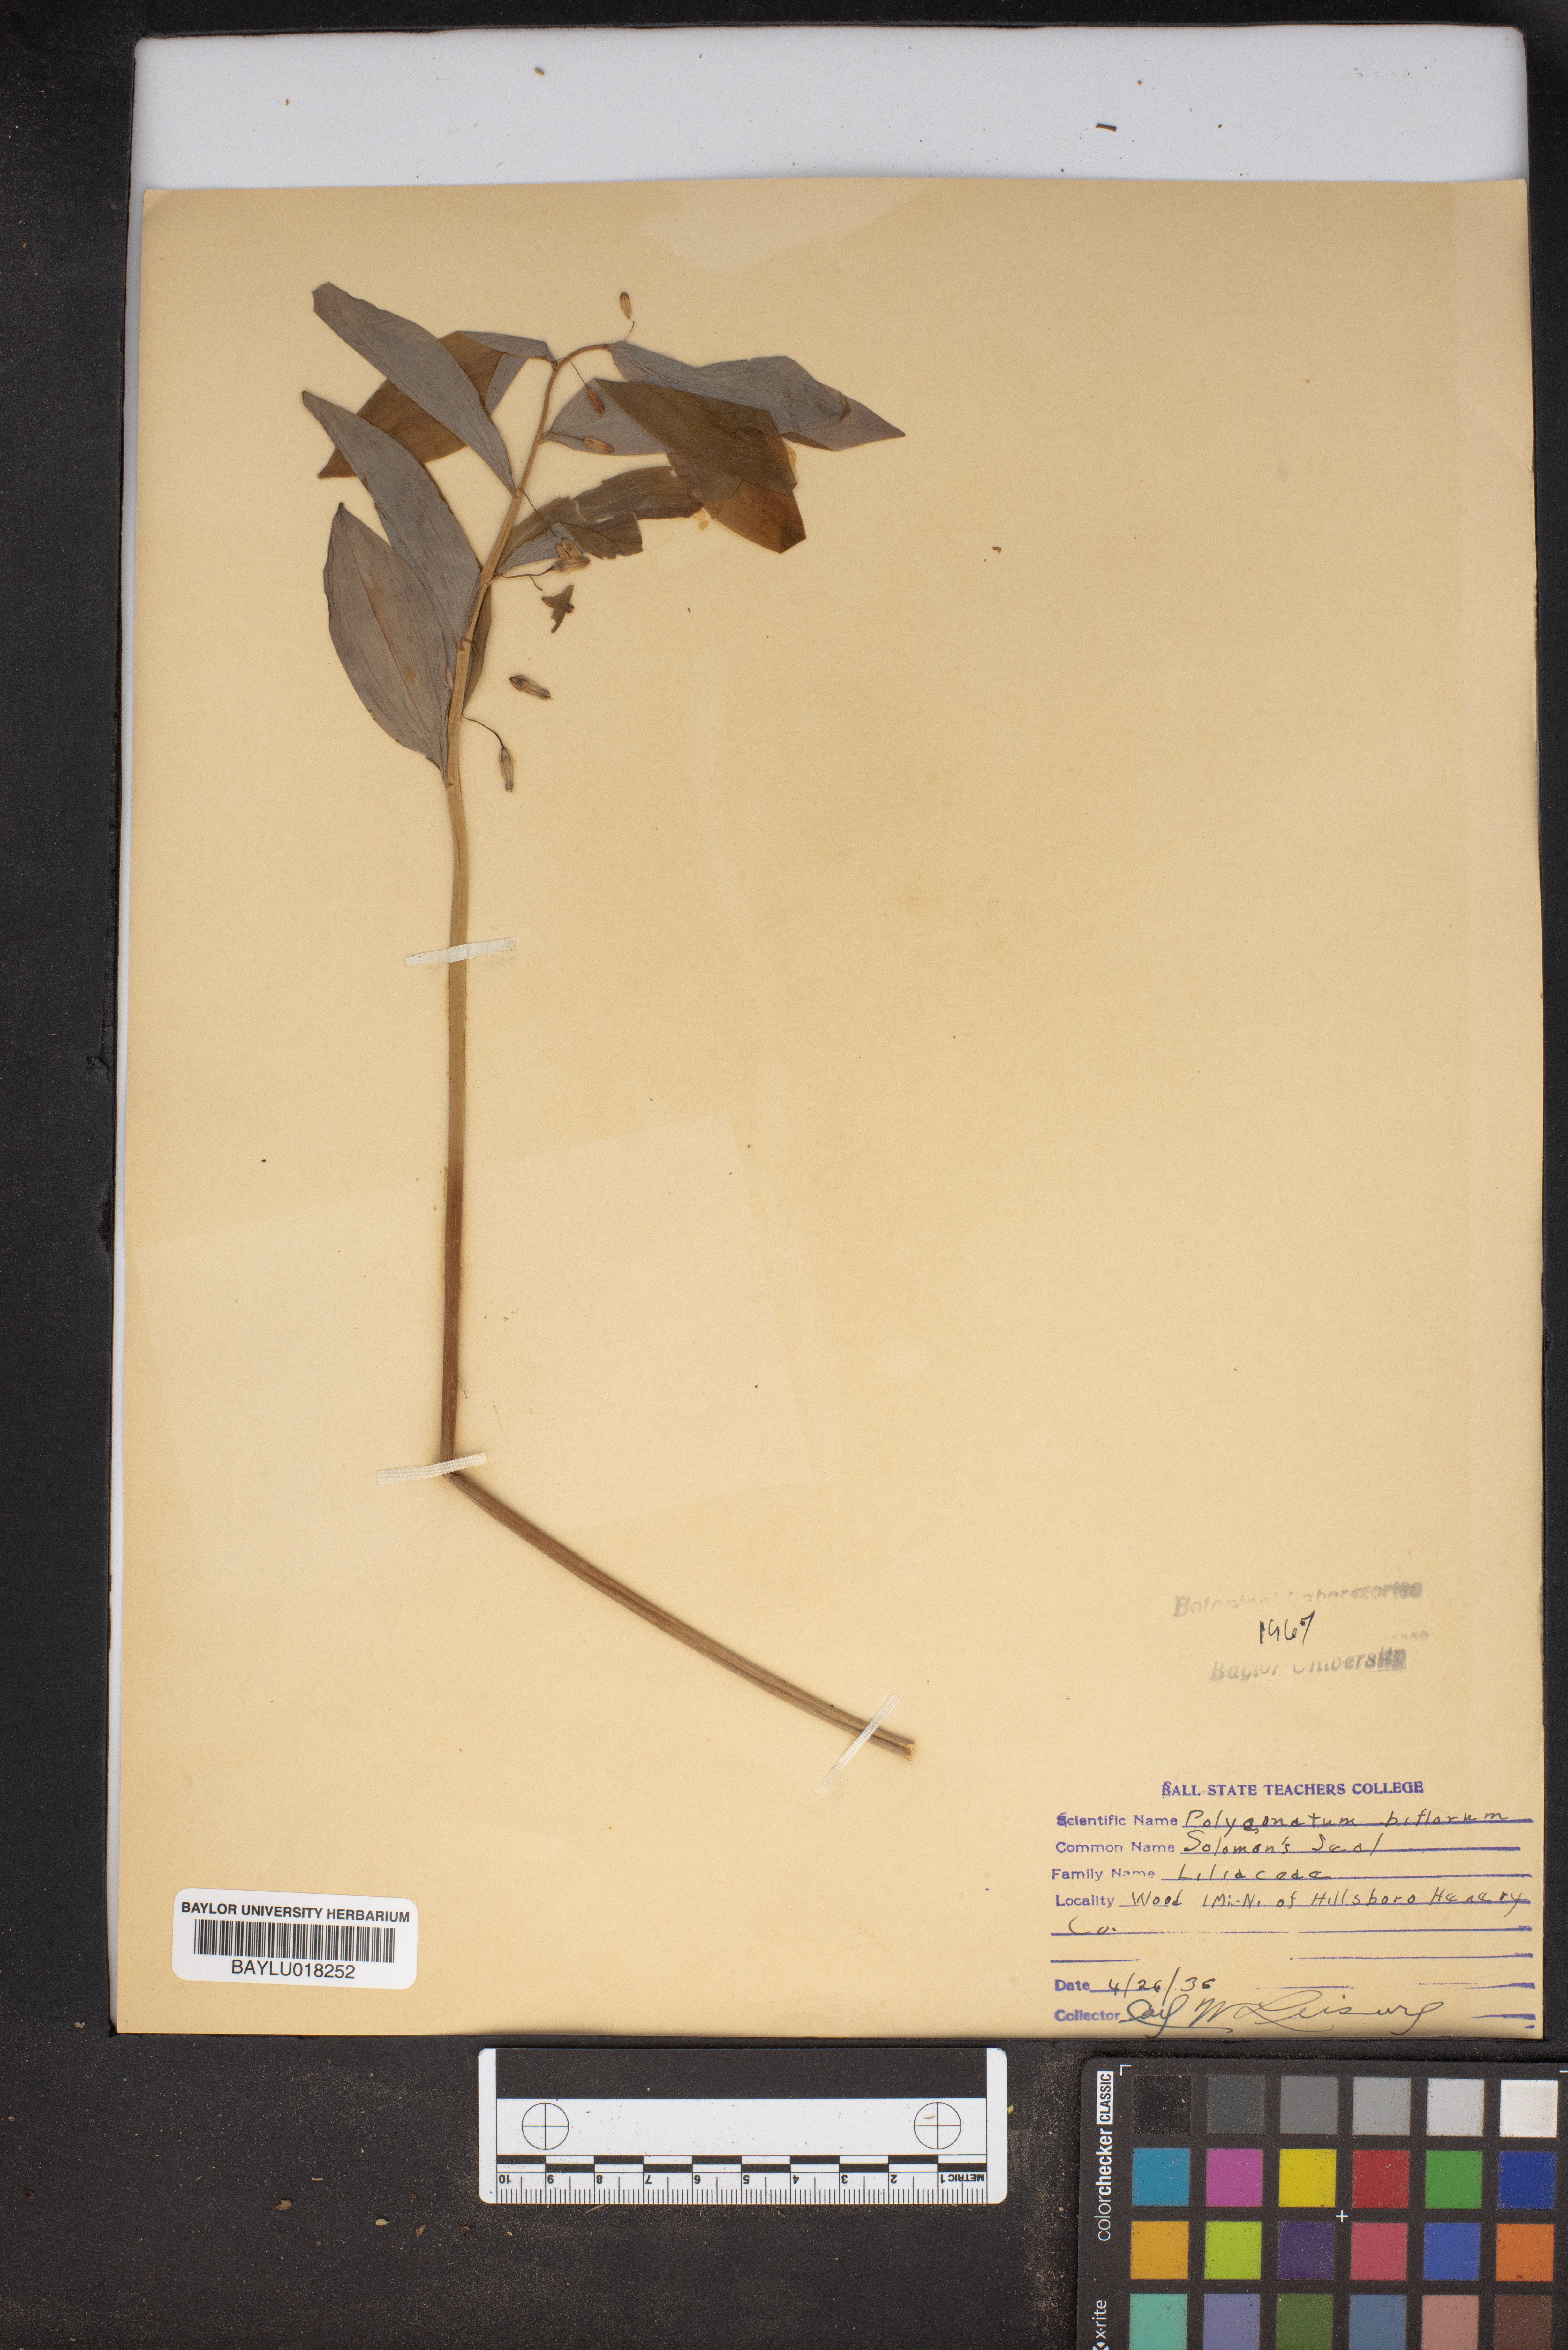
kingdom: Plantae
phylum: Tracheophyta
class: Liliopsida
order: Asparagales
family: Asparagaceae
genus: Polygonatum
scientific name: Polygonatum biflorum
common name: American solomon's-seal
